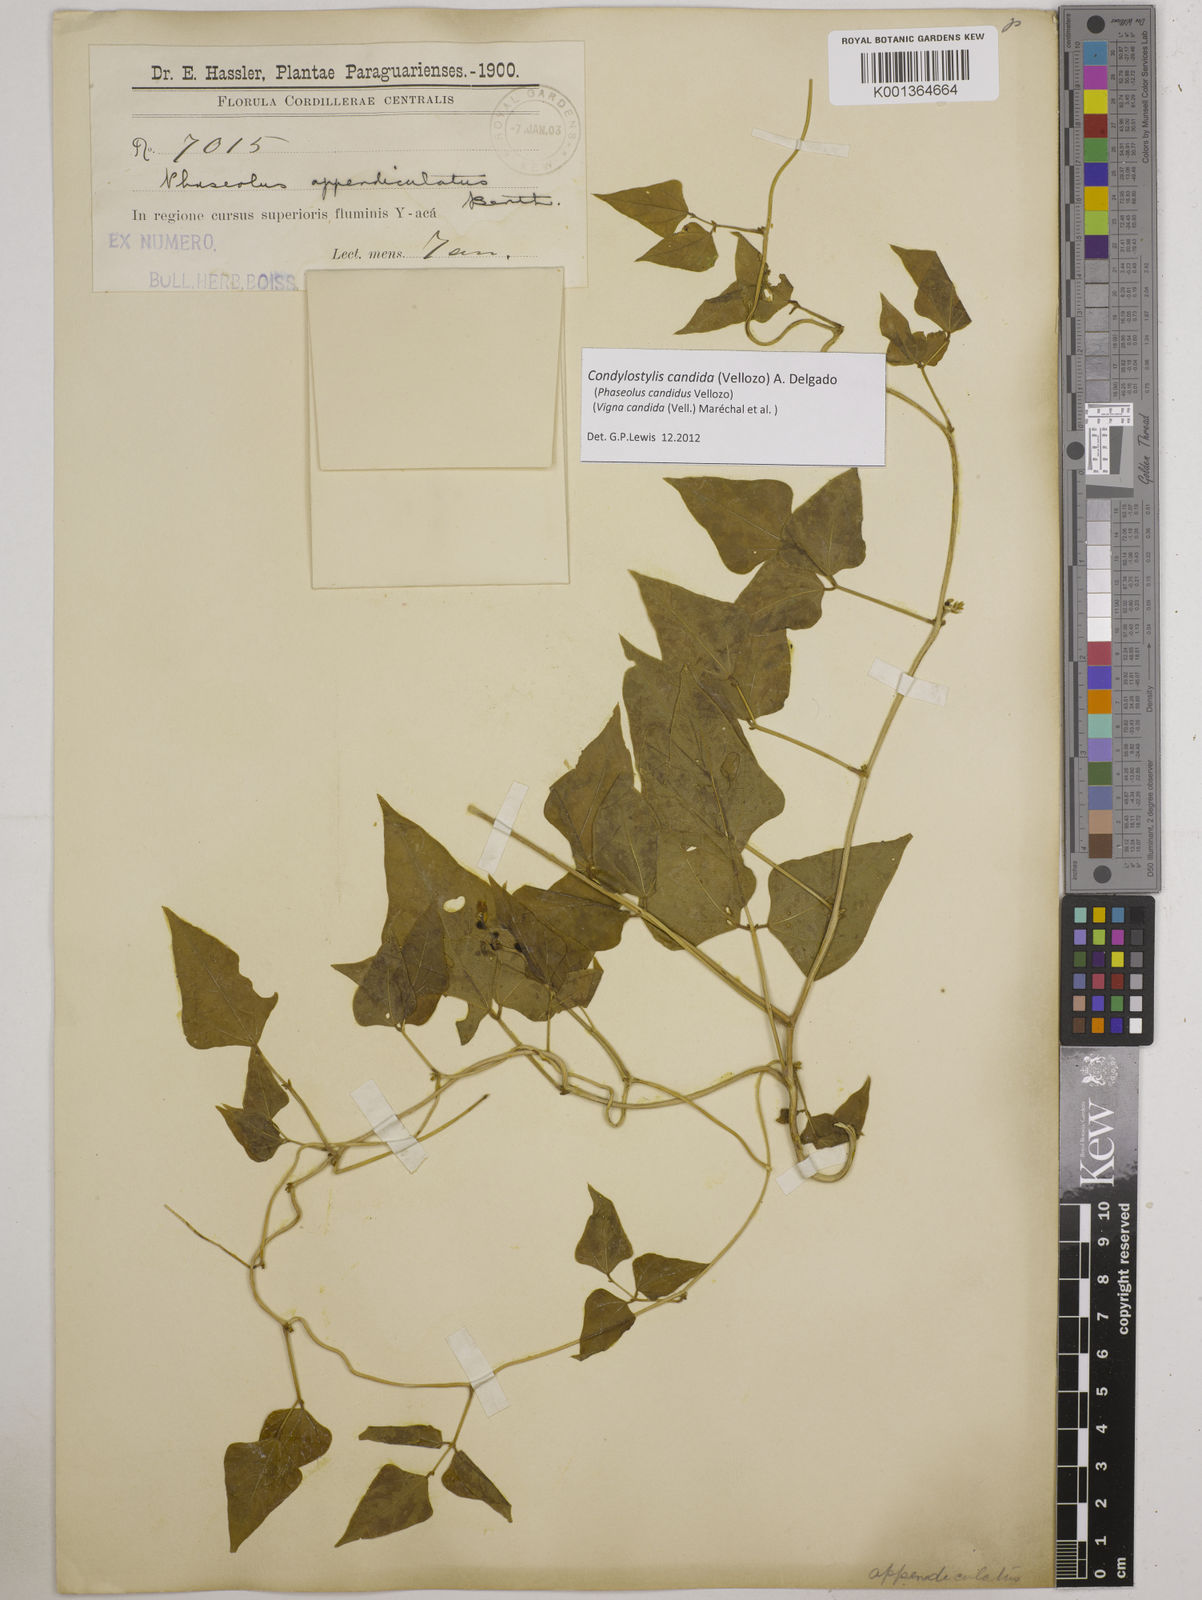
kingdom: Plantae
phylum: Tracheophyta
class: Magnoliopsida
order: Fabales
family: Fabaceae
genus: Condylostylis
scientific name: Condylostylis candida
